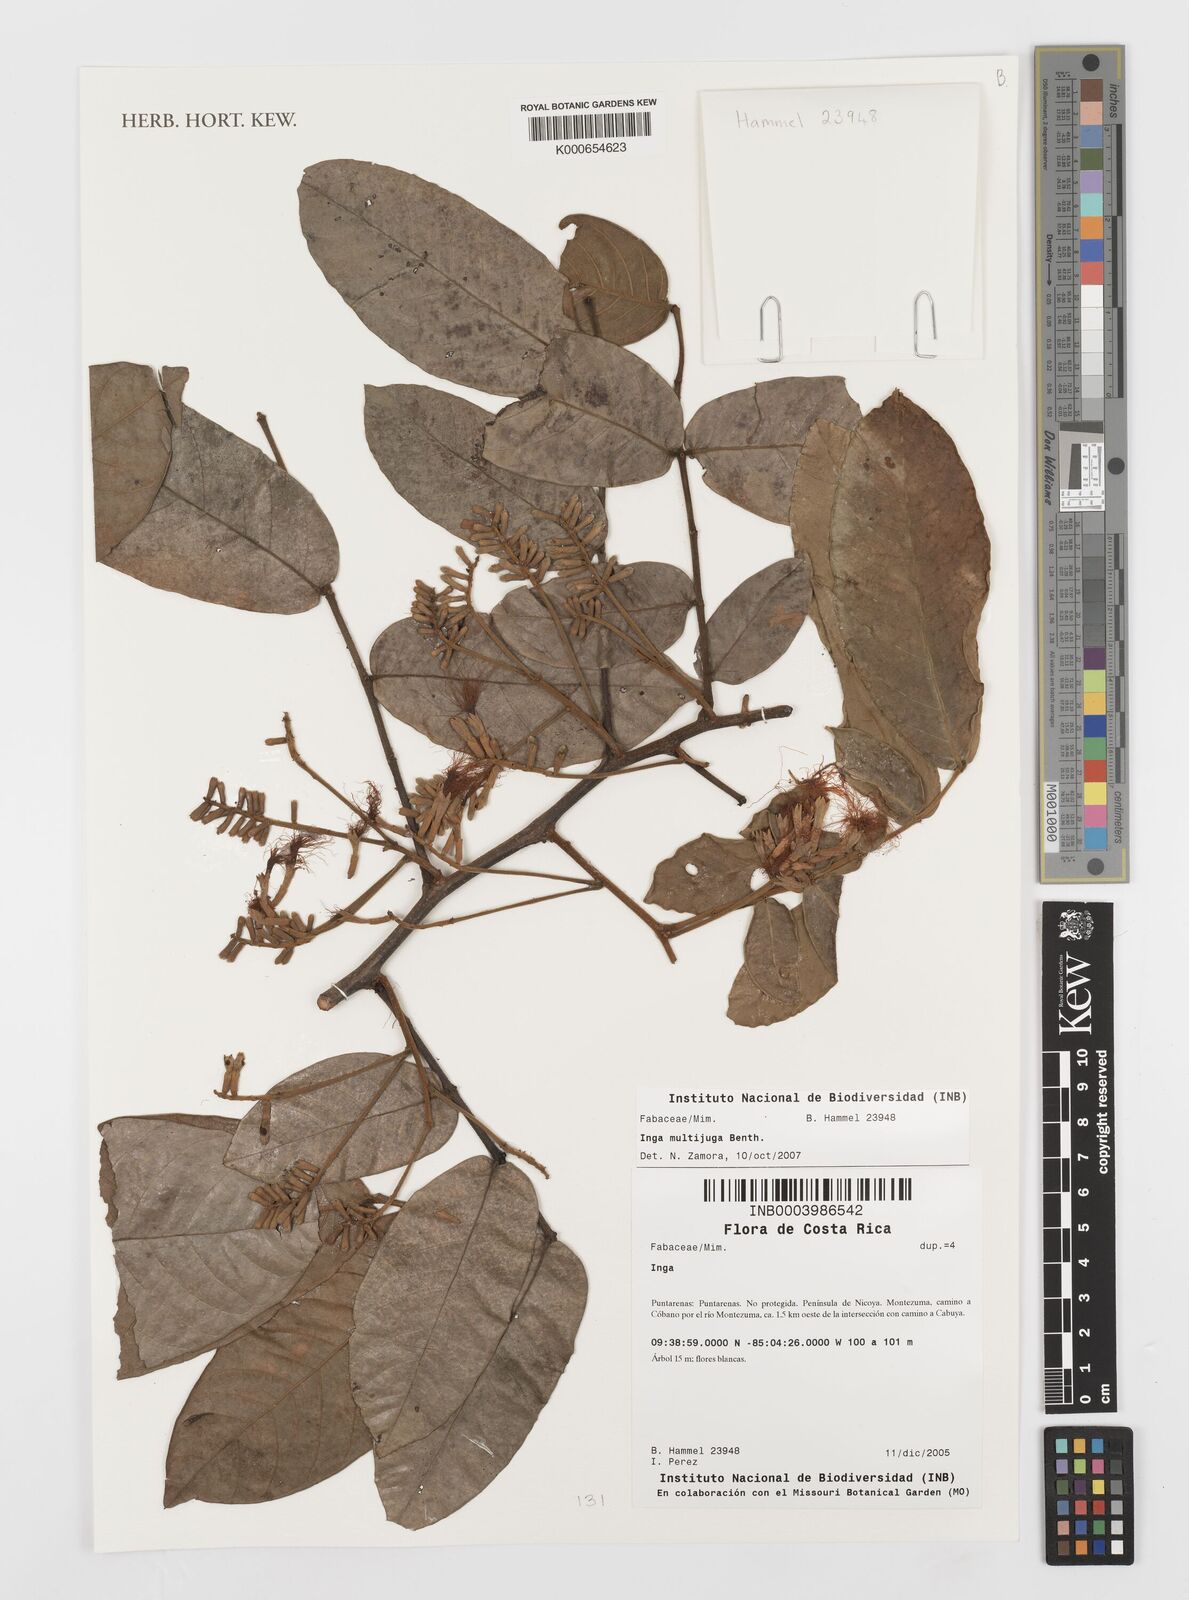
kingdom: Plantae
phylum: Tracheophyta
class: Magnoliopsida
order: Fabales
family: Fabaceae
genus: Inga
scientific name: Inga multijuga
